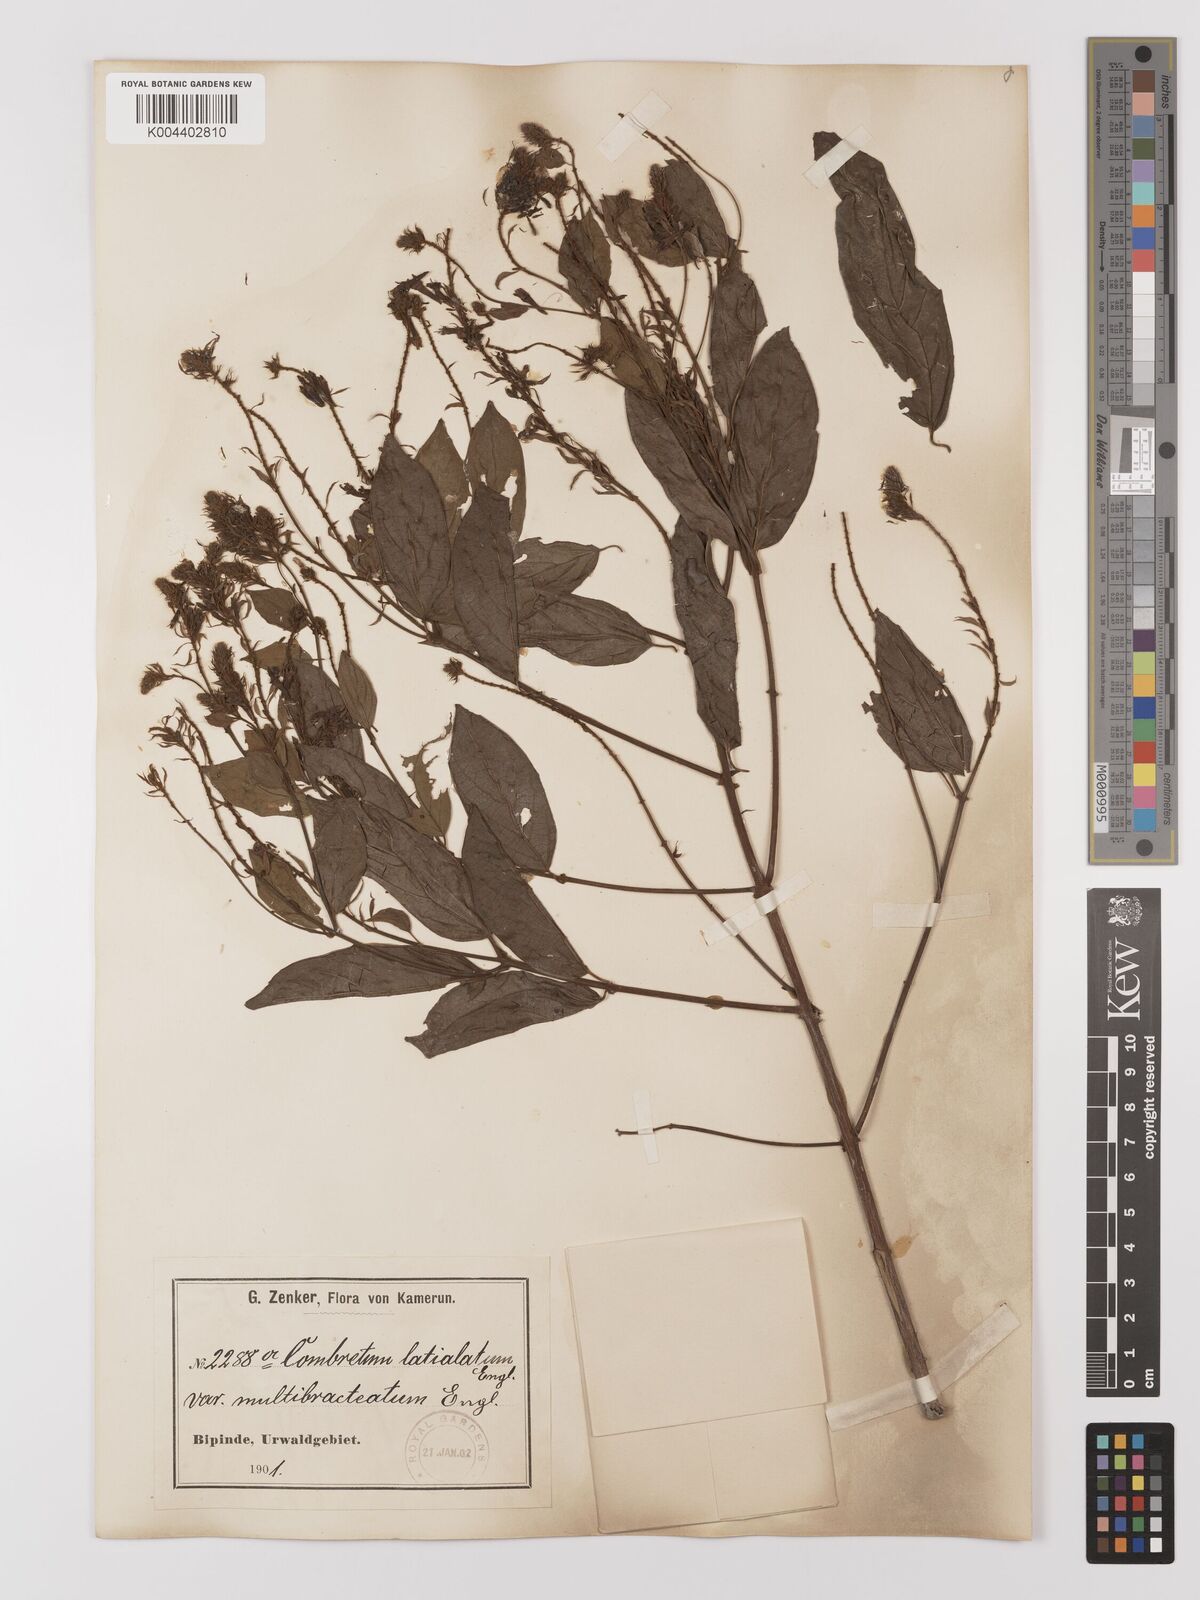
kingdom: Plantae
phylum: Tracheophyta
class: Magnoliopsida
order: Myrtales
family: Combretaceae
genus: Combretum
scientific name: Combretum latialatum
